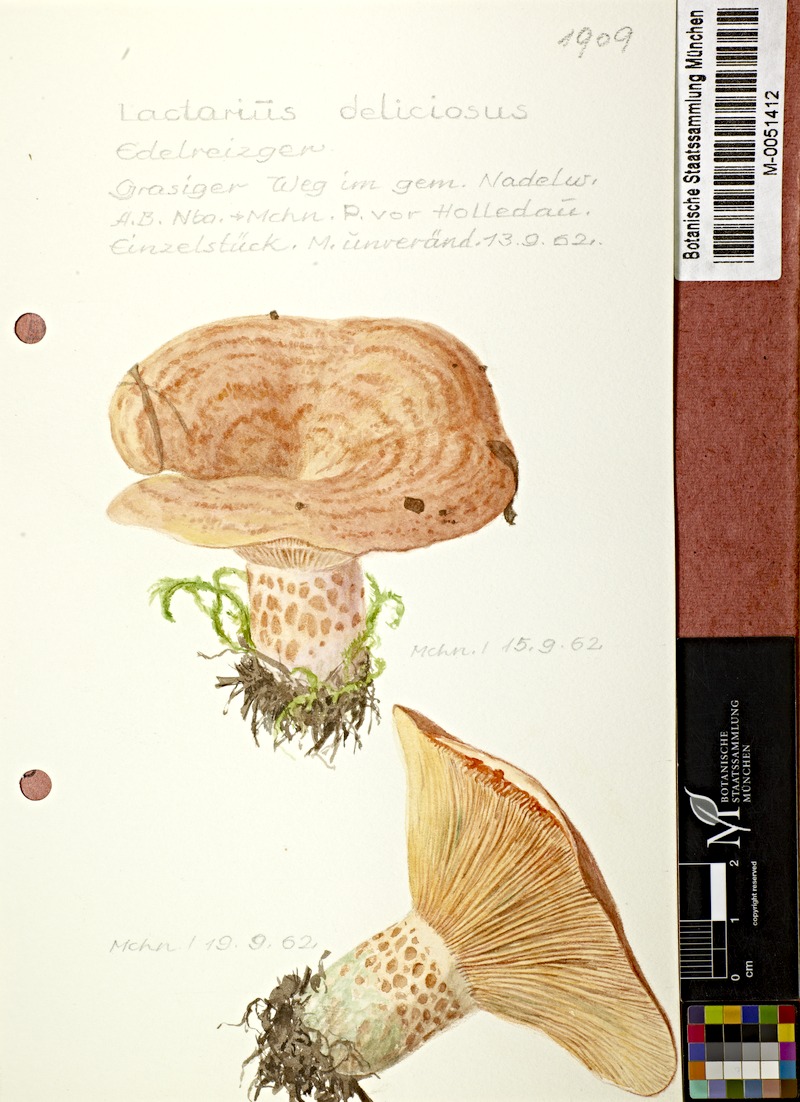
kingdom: Fungi
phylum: Basidiomycota
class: Agaricomycetes
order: Russulales
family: Russulaceae
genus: Lactarius
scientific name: Lactarius deliciosus
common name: Saffron milk-cap
